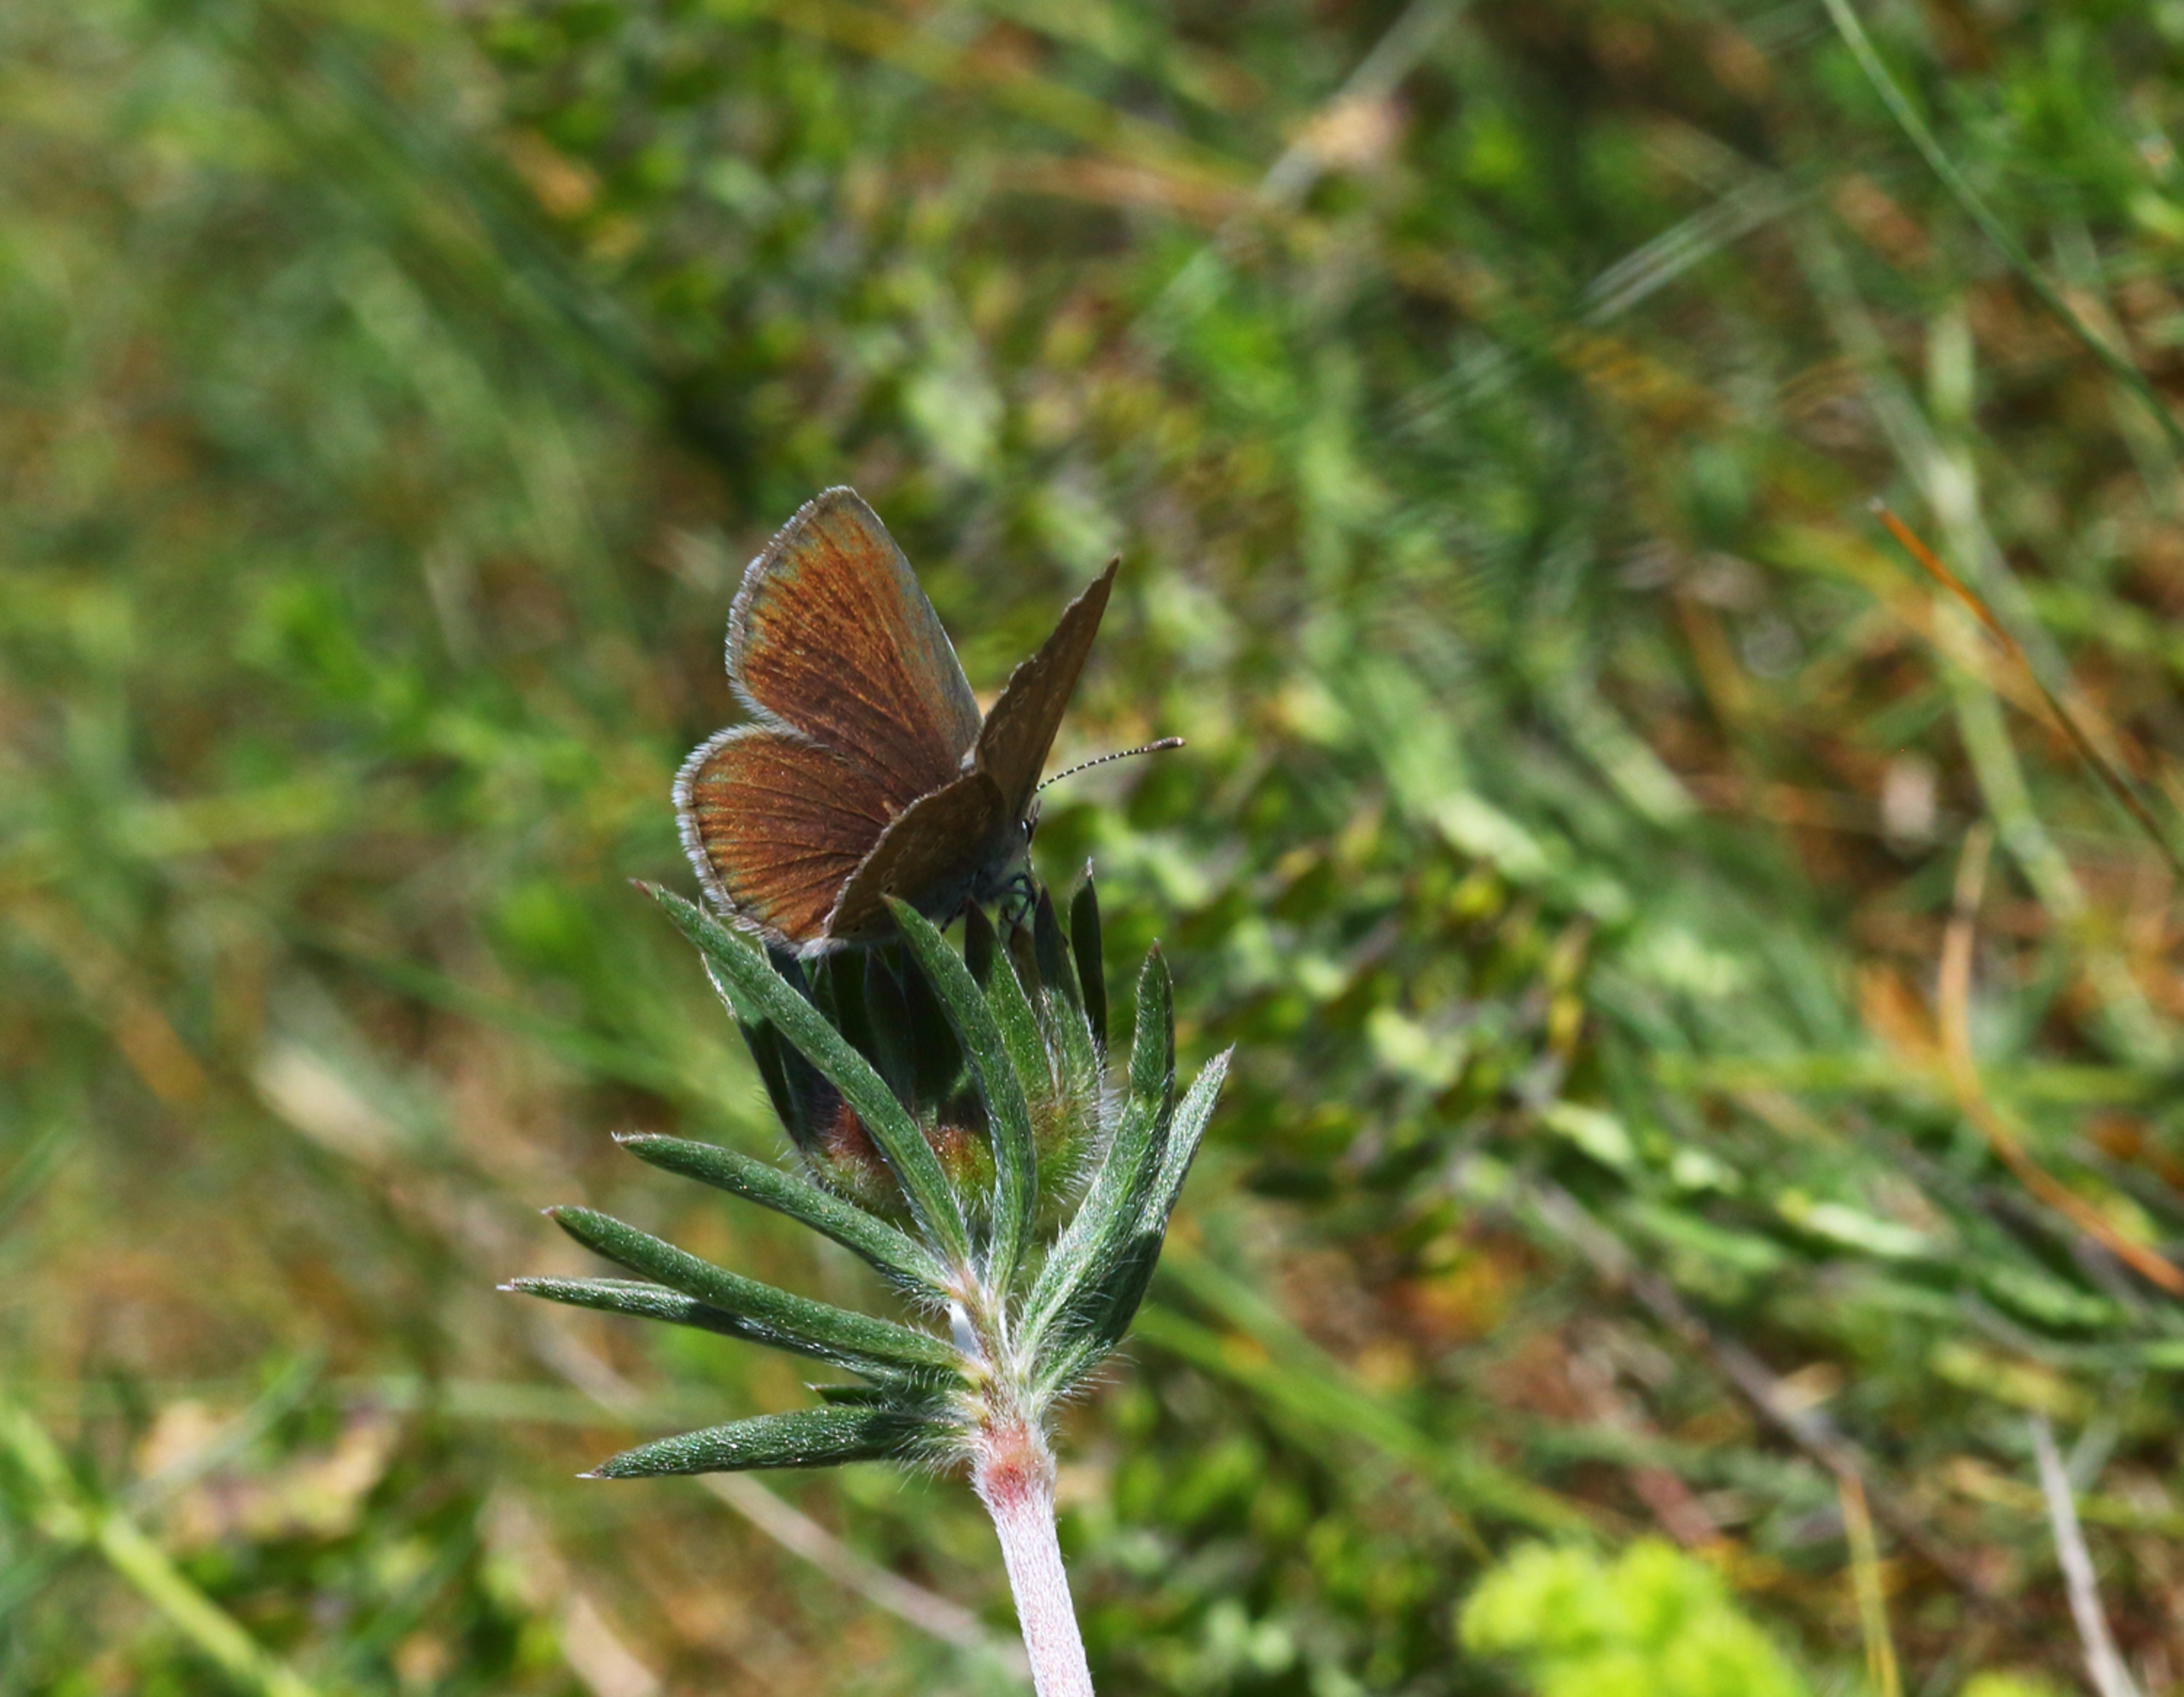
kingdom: Animalia
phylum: Arthropoda
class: Insecta
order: Lepidoptera
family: Lycaenidae
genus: Cupido
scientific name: Cupido minimus
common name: Dværgblåfugl
